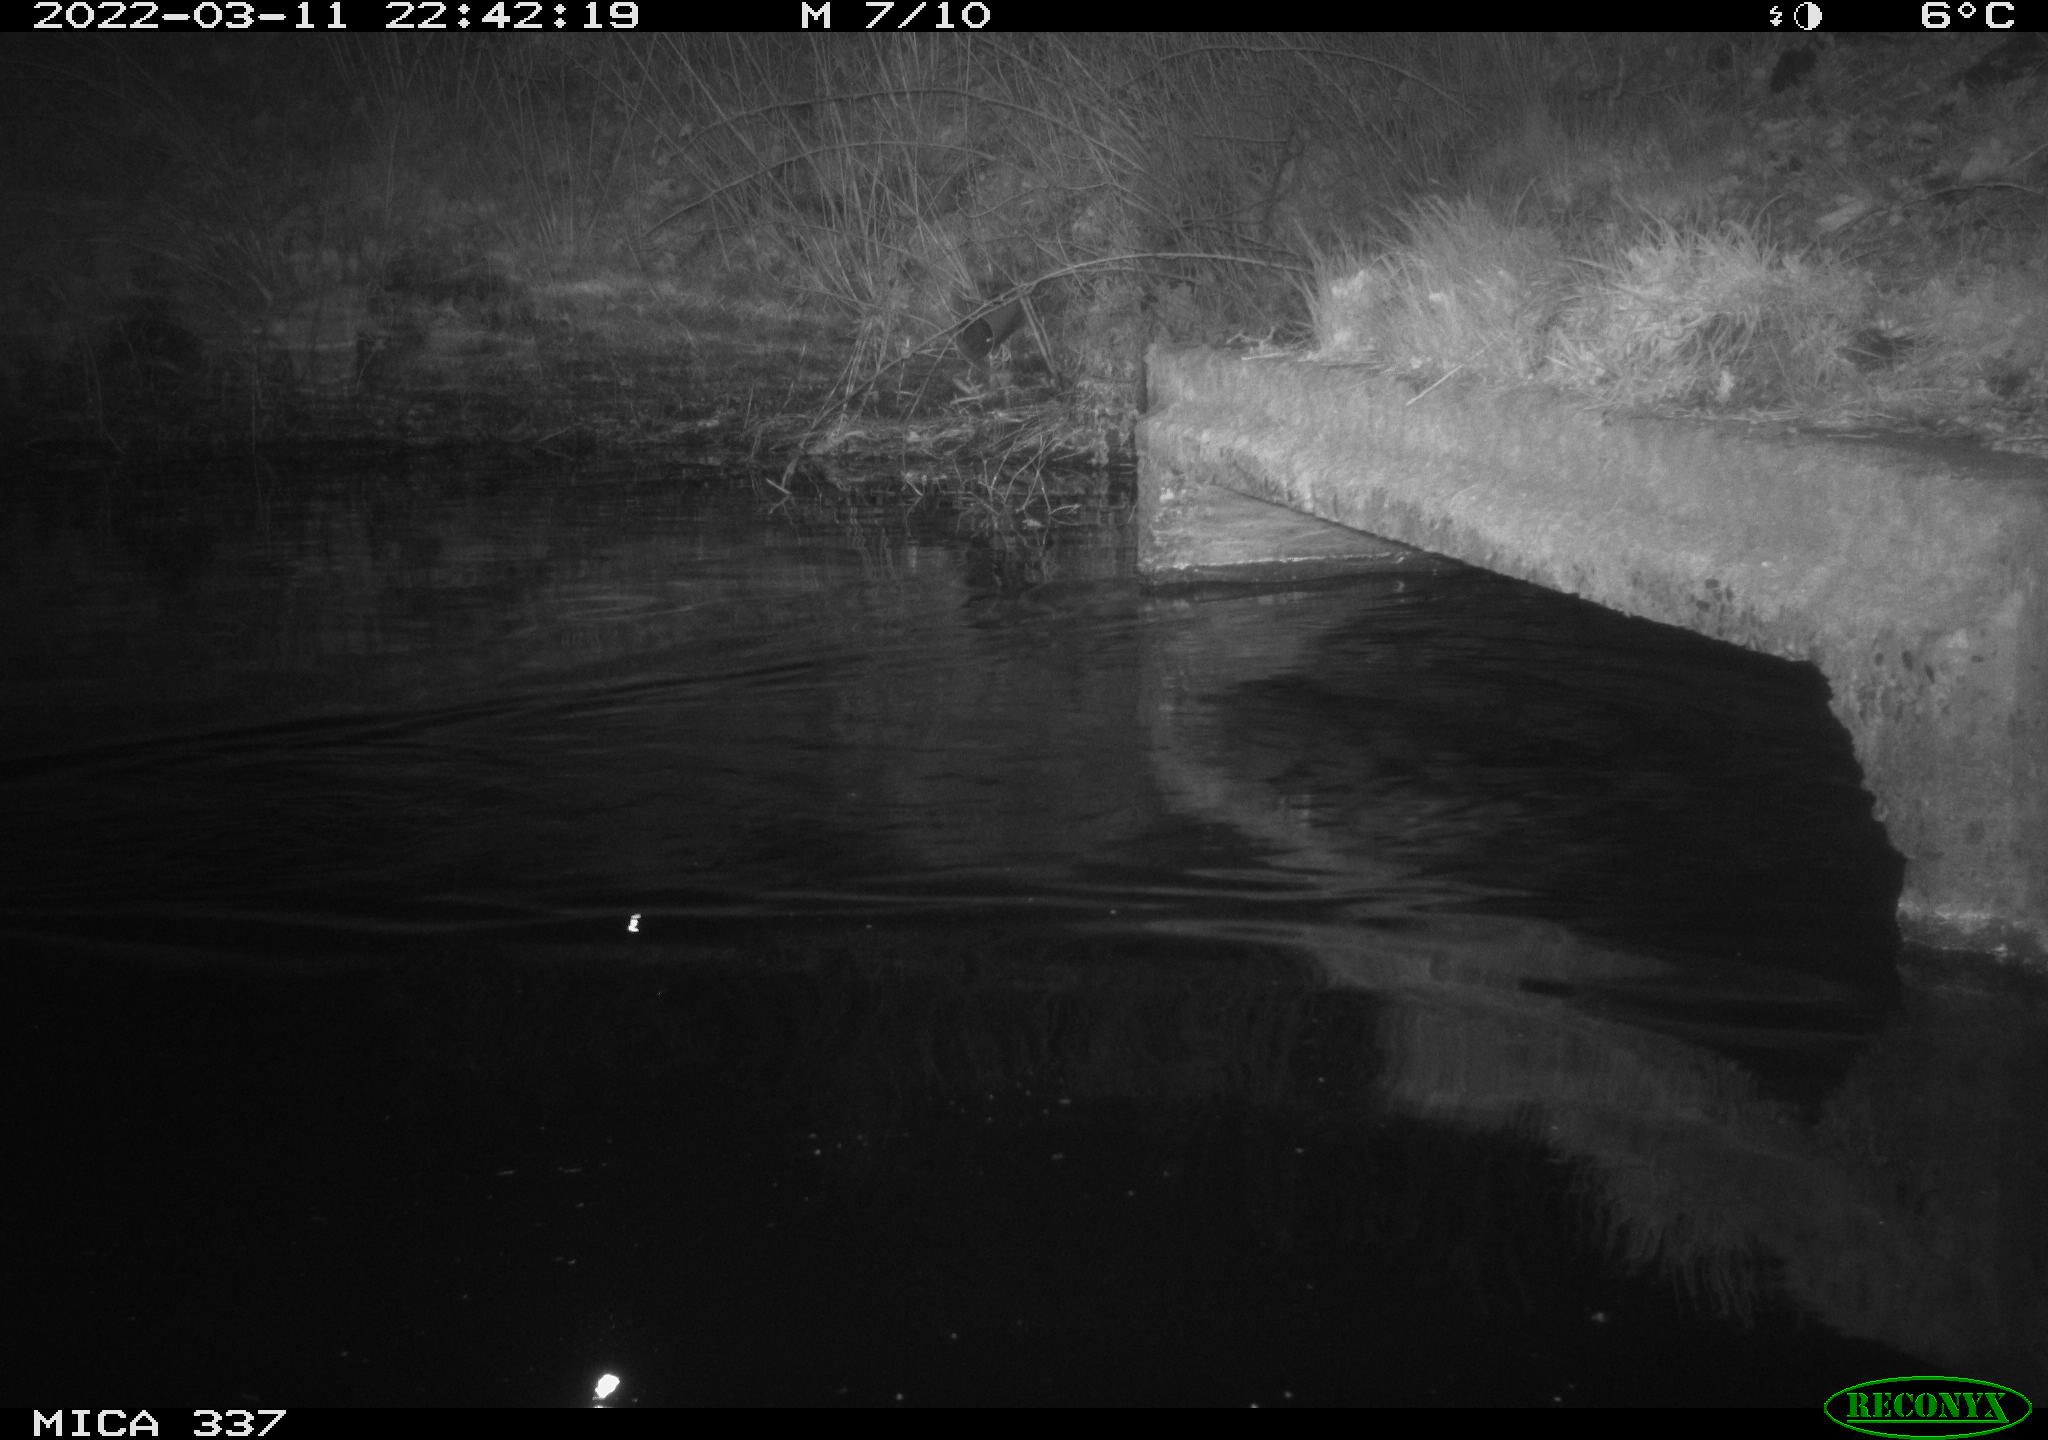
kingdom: Animalia
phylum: Chordata
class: Aves
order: Anseriformes
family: Anatidae
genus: Anas
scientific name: Anas platyrhynchos
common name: Mallard
